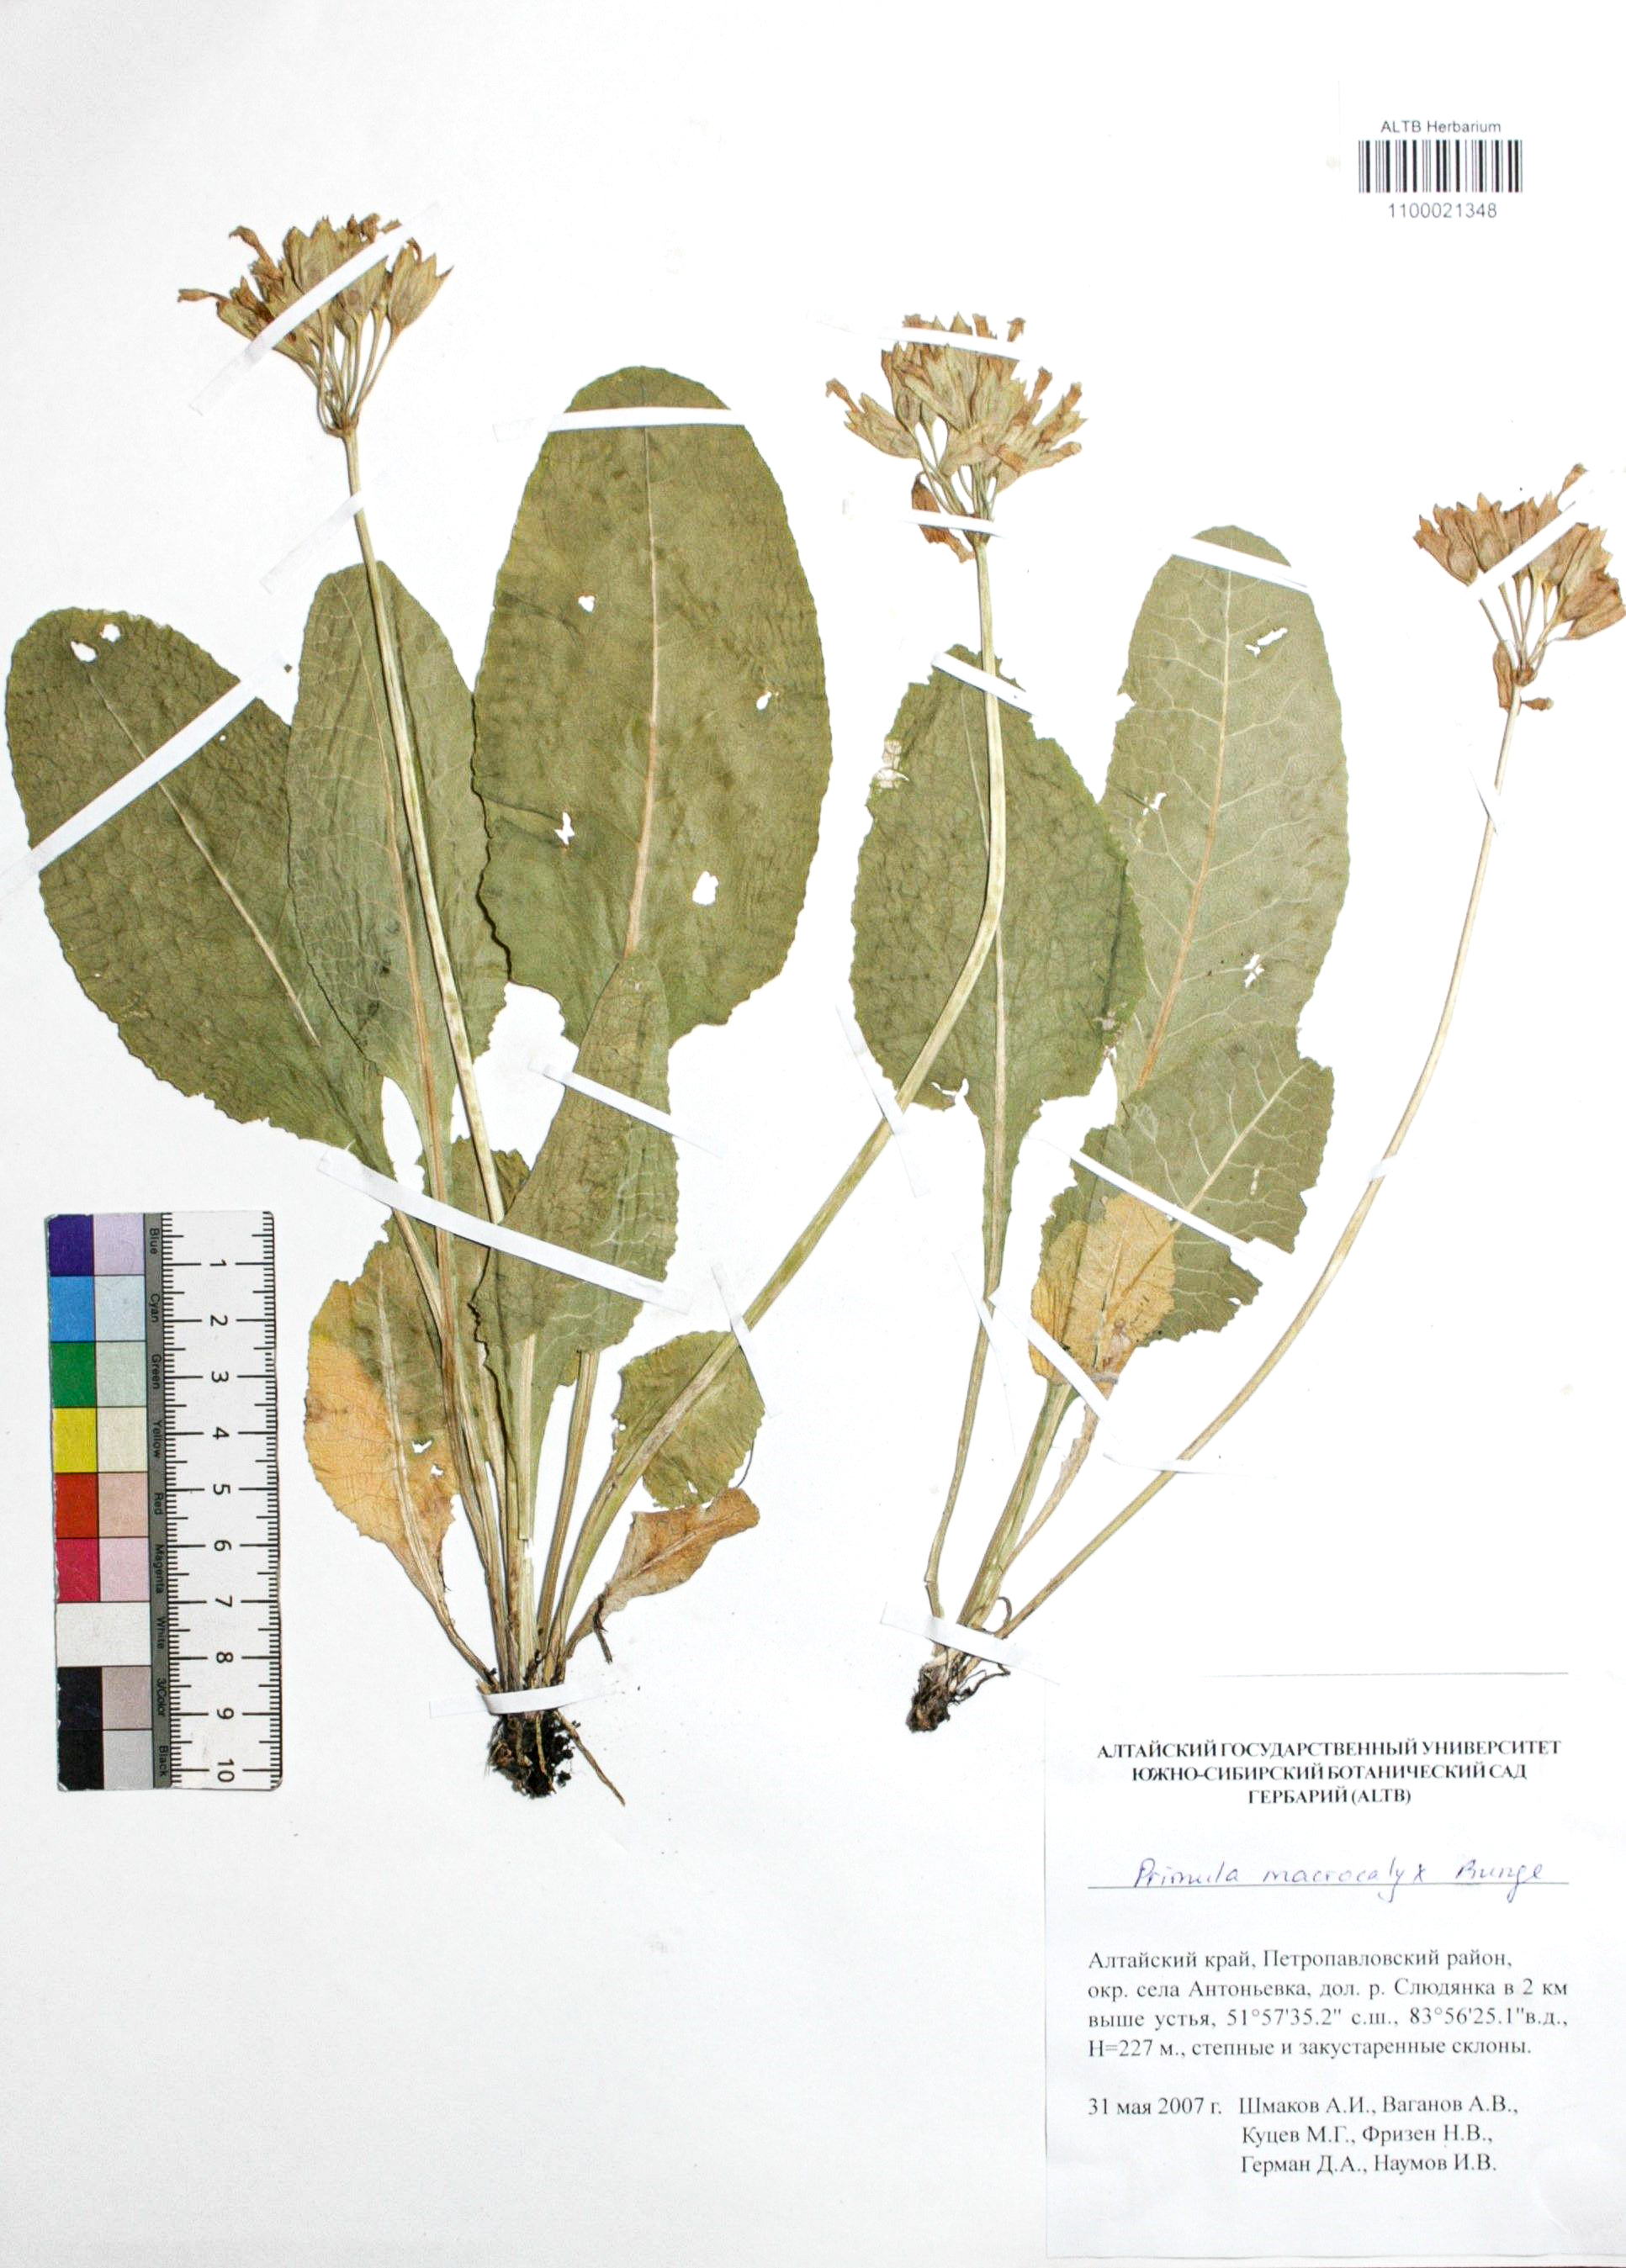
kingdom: Plantae
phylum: Tracheophyta
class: Magnoliopsida
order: Ericales
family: Primulaceae
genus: Primula
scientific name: Primula veris
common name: Cowslip
